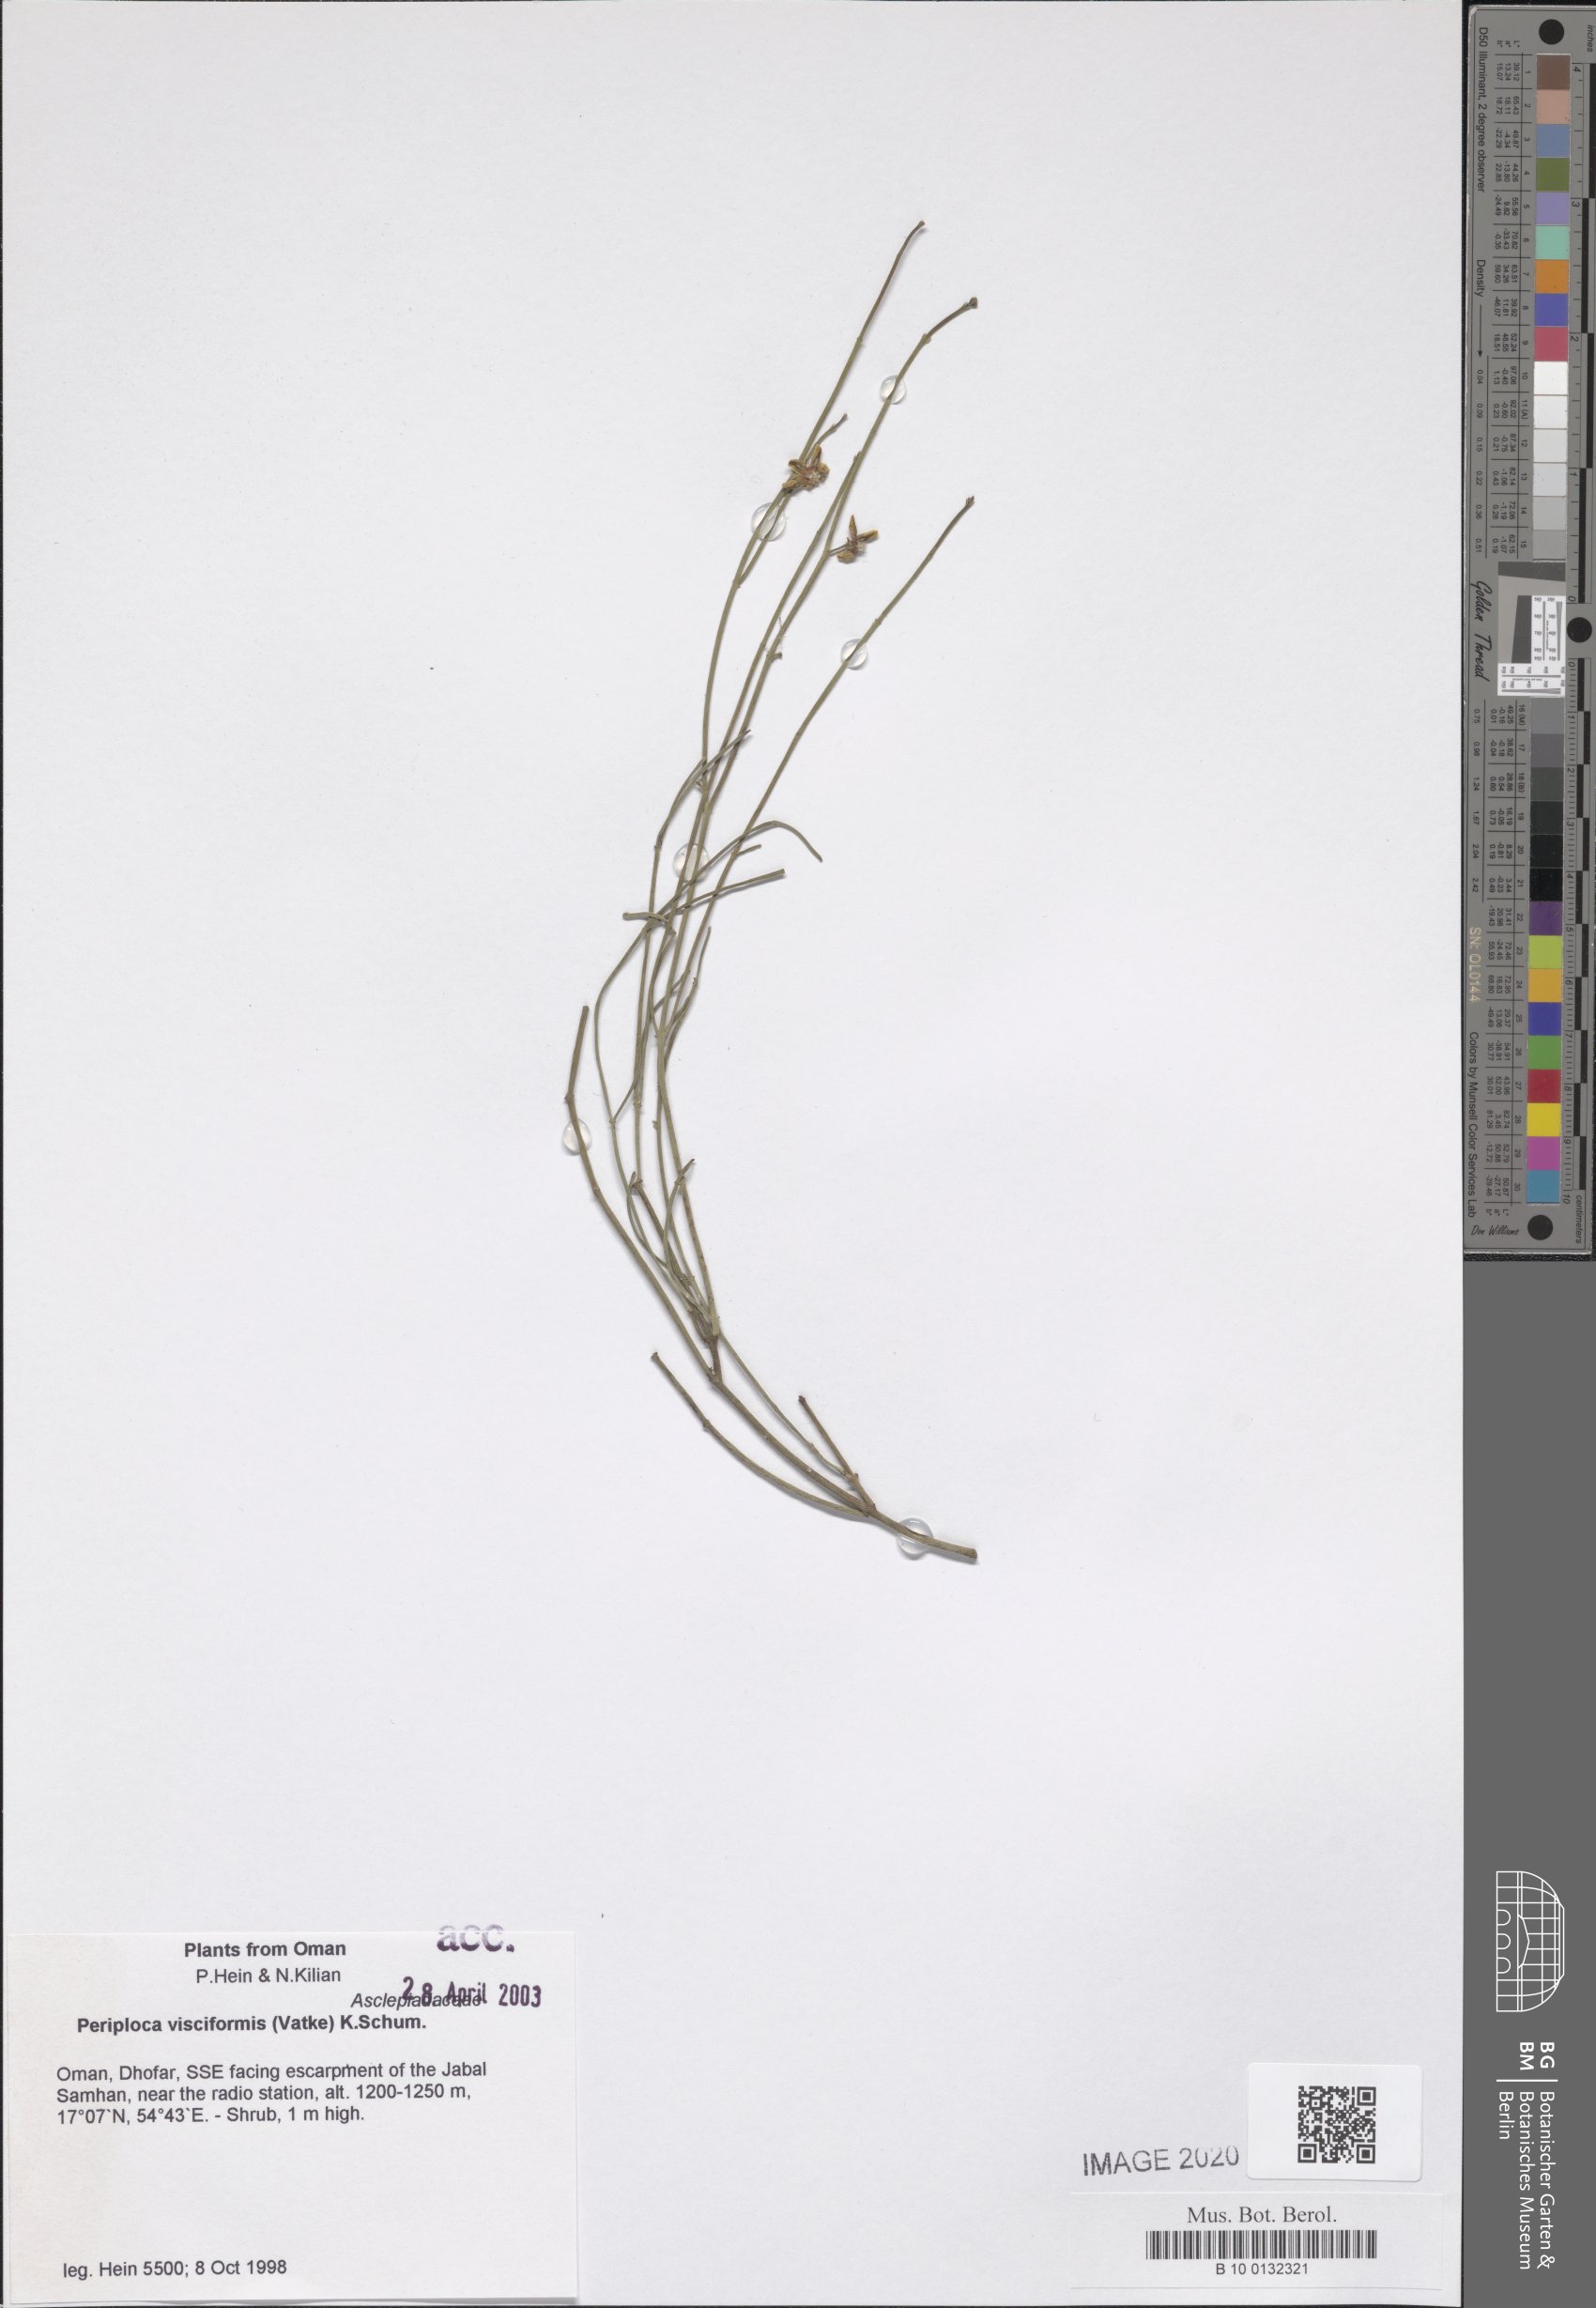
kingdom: Plantae
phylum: Tracheophyta
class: Magnoliopsida
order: Gentianales
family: Apocynaceae
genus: Periploca
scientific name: Periploca visciformis
